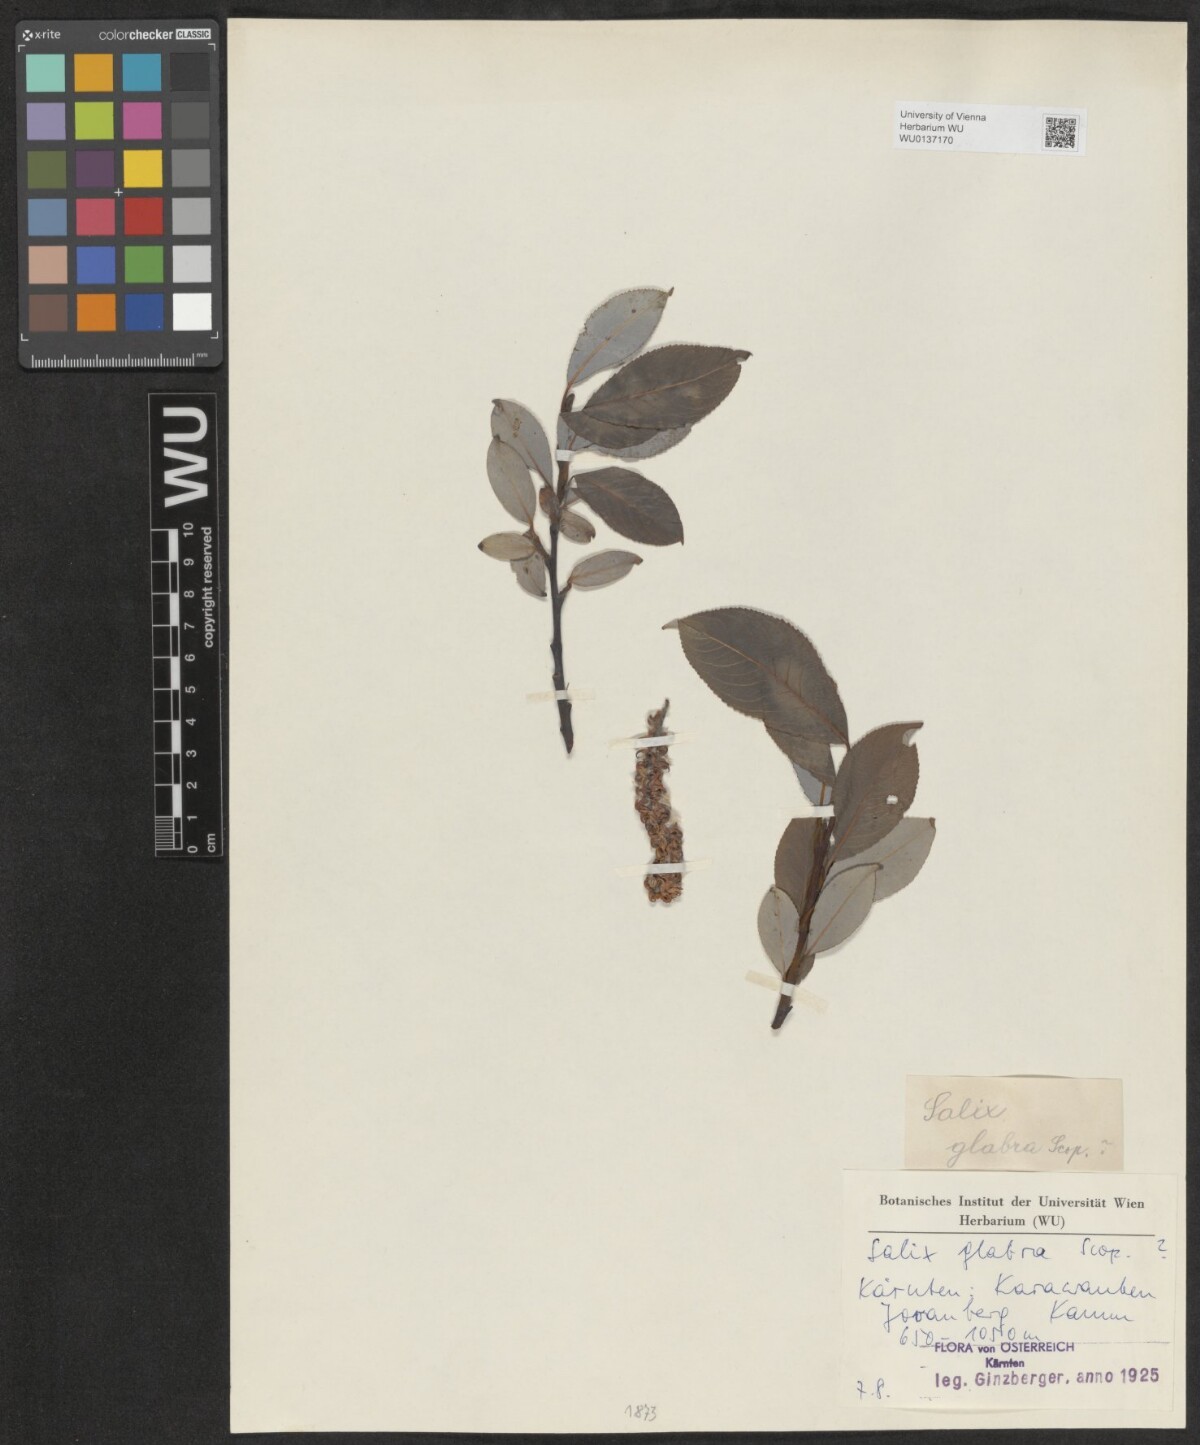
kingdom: Plantae
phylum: Tracheophyta
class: Magnoliopsida
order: Malpighiales
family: Salicaceae
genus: Salix
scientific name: Salix glabra
